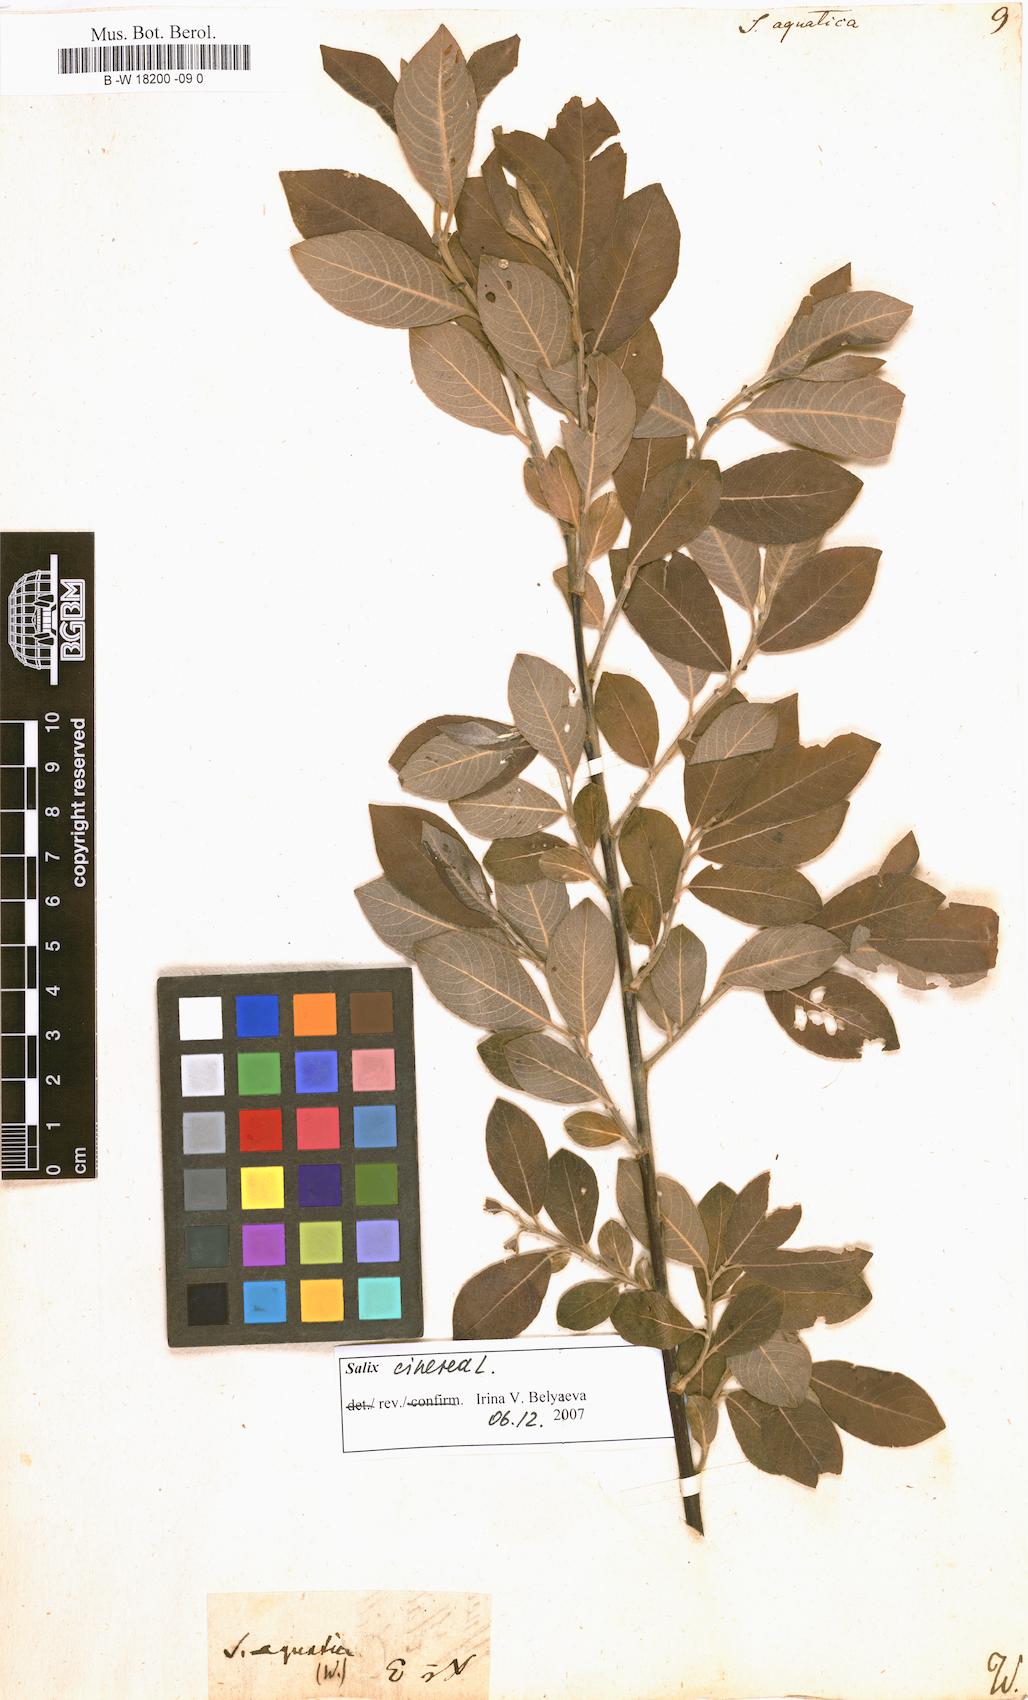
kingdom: Plantae
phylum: Tracheophyta
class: Magnoliopsida
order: Malpighiales
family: Salicaceae
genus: Salix
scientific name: Salix
